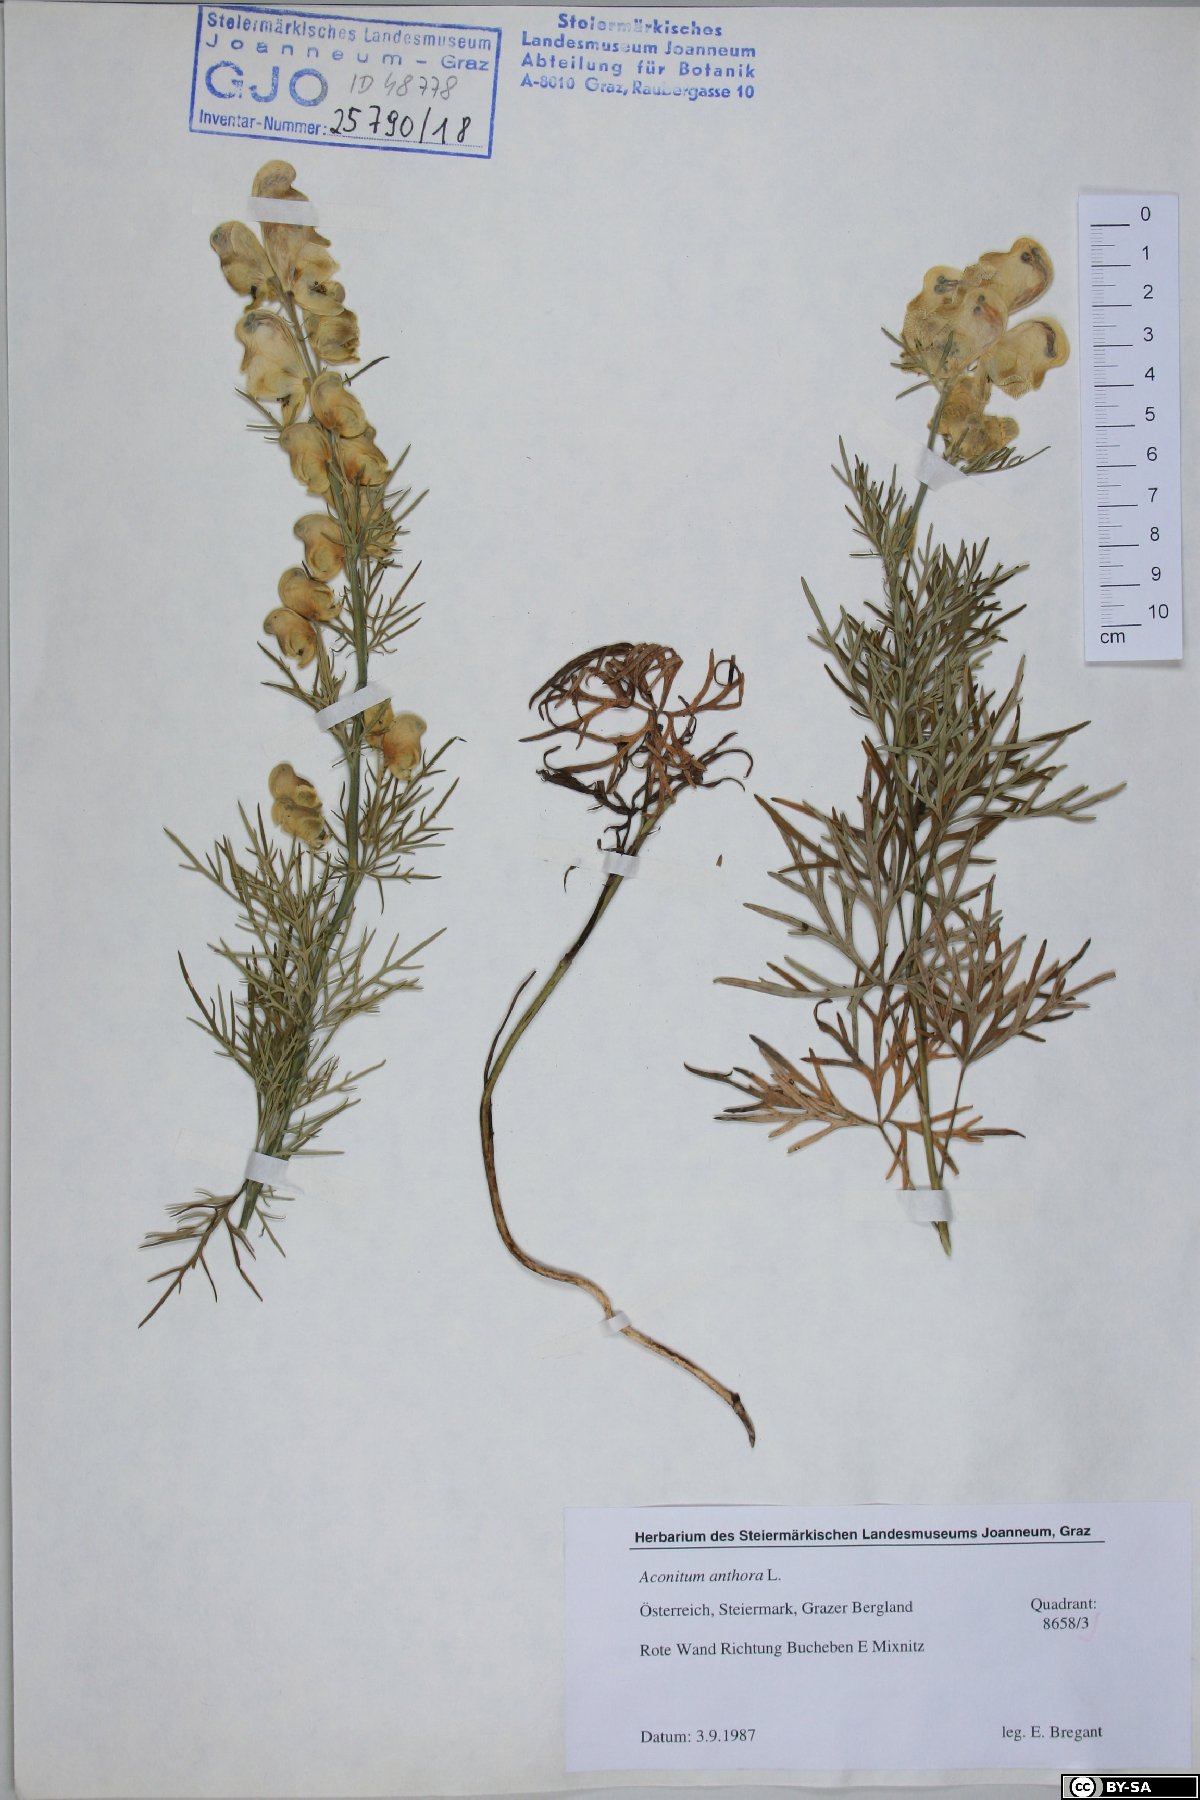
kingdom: Plantae
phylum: Tracheophyta
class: Magnoliopsida
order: Ranunculales
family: Ranunculaceae
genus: Aconitum
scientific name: Aconitum anthora
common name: Yellow monkshood
